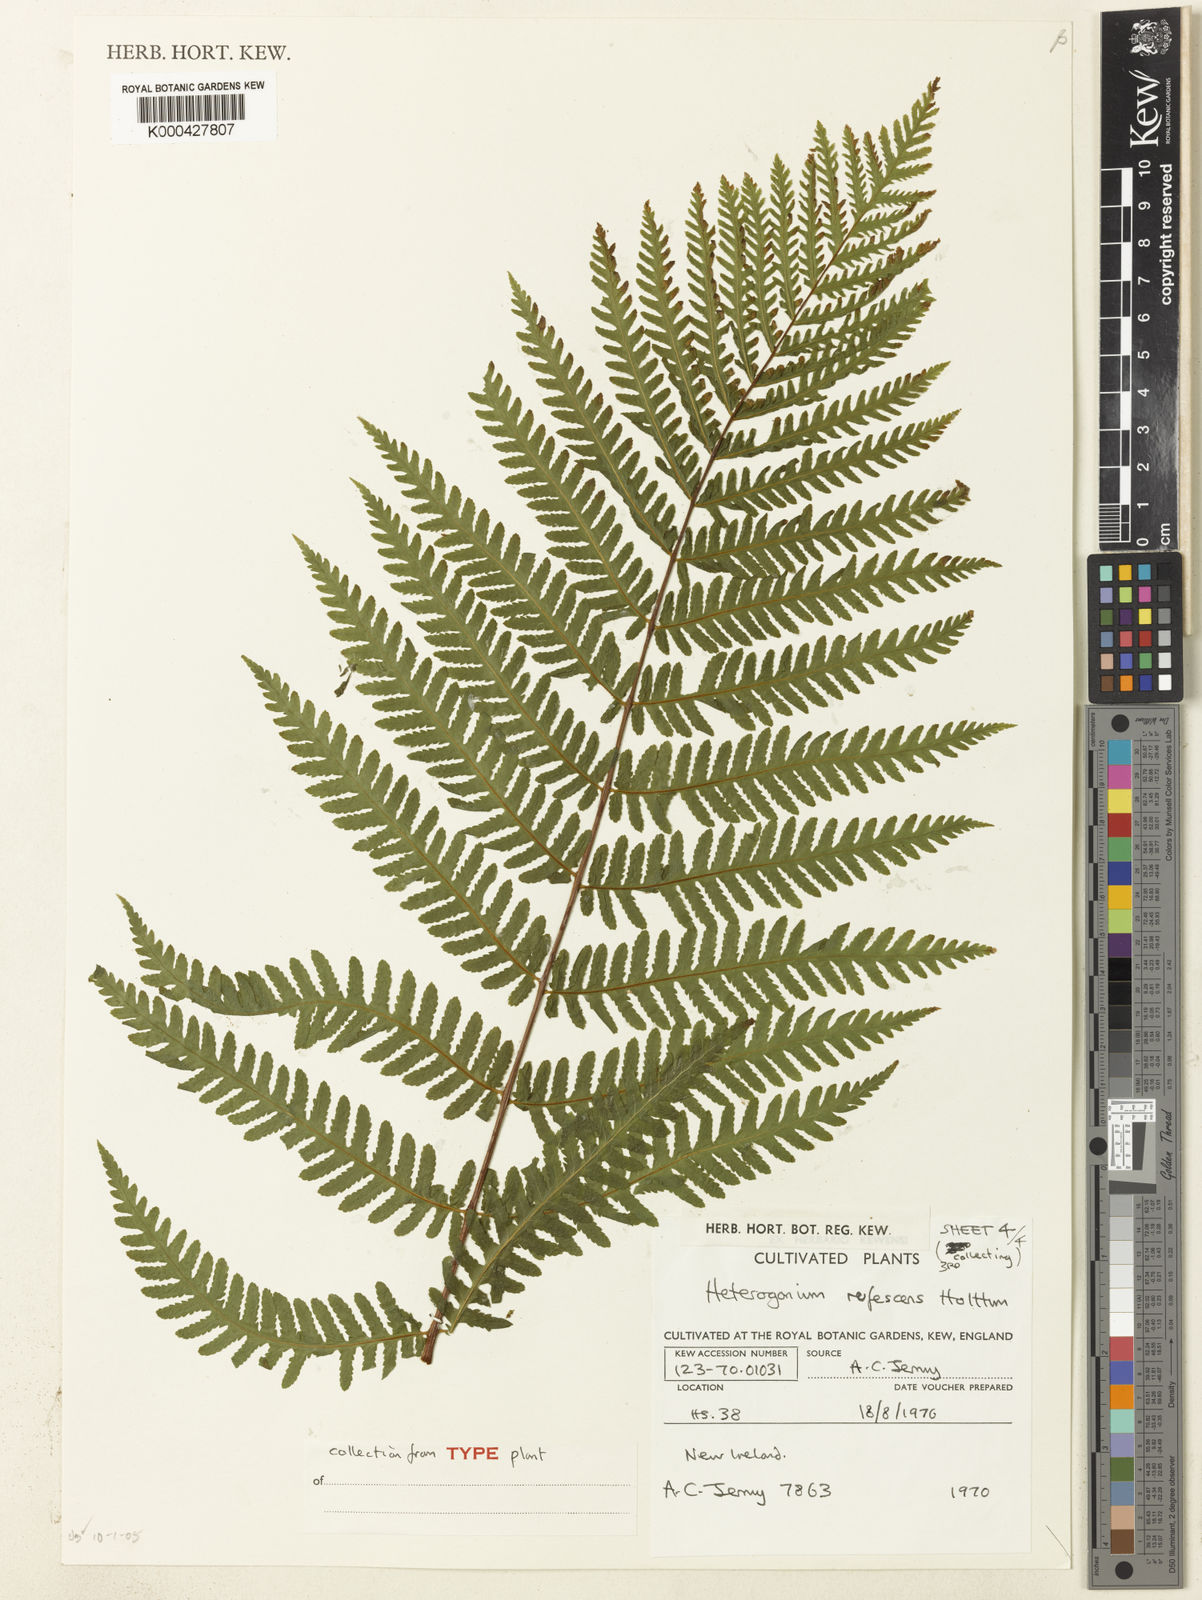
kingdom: Plantae
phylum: Tracheophyta
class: Polypodiopsida
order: Polypodiales
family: Tectariaceae
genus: Tectaria
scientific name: Tectaria jermyi
